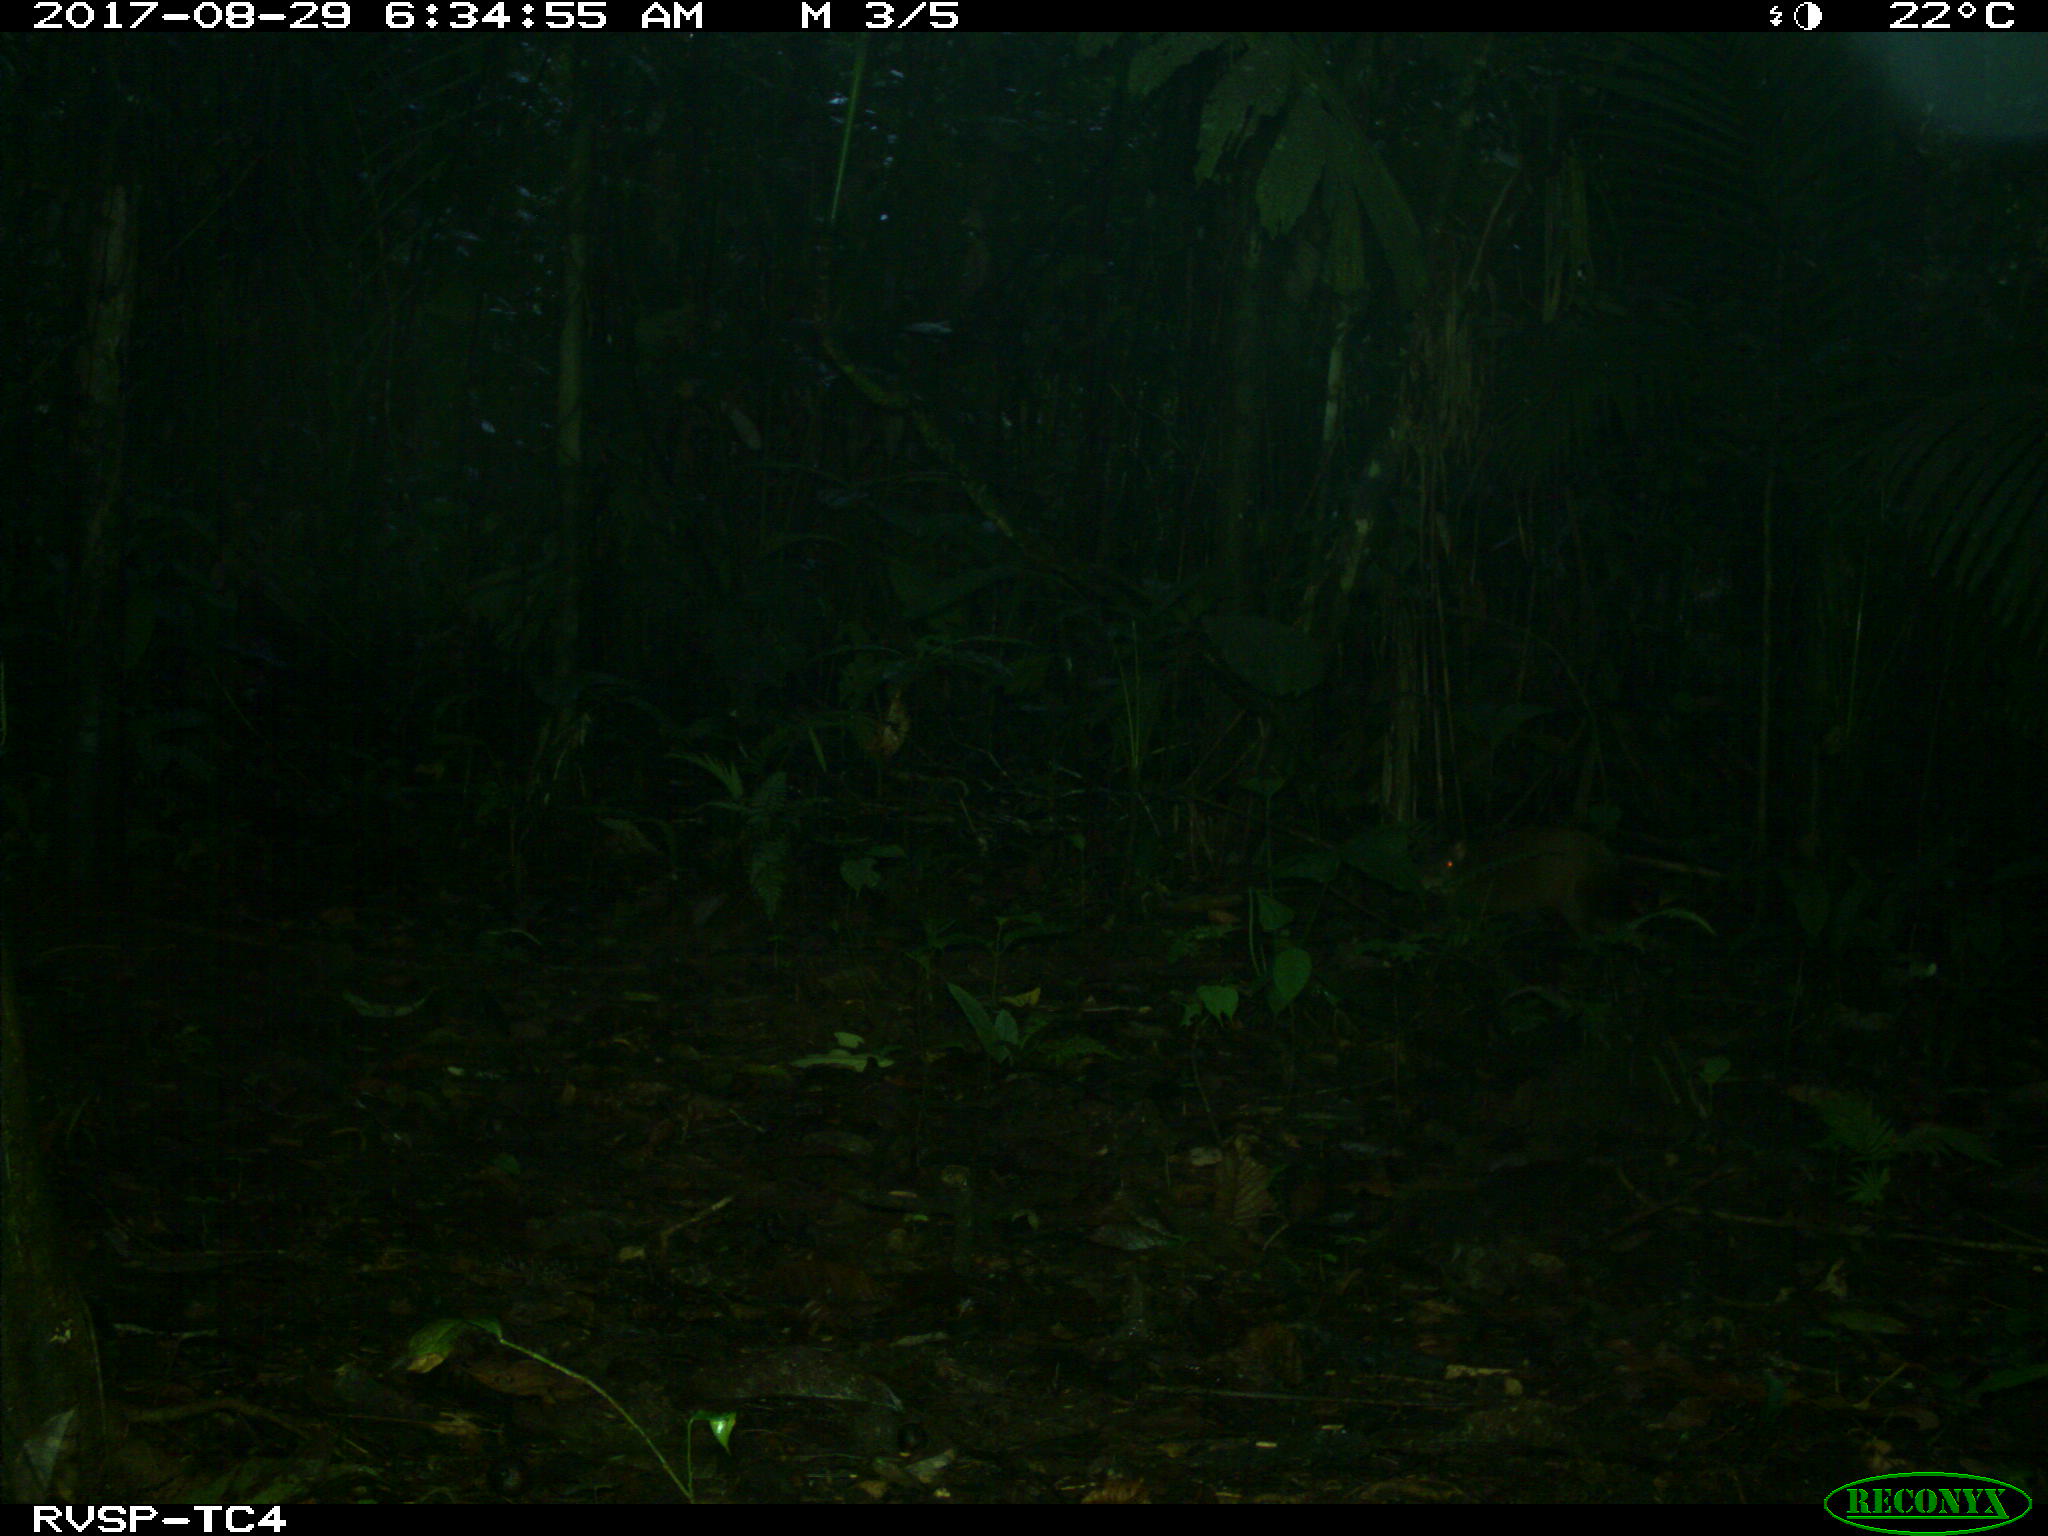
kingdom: Animalia
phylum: Chordata
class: Mammalia
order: Rodentia
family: Dasyproctidae
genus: Dasyprocta
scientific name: Dasyprocta punctata
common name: Central american agouti
